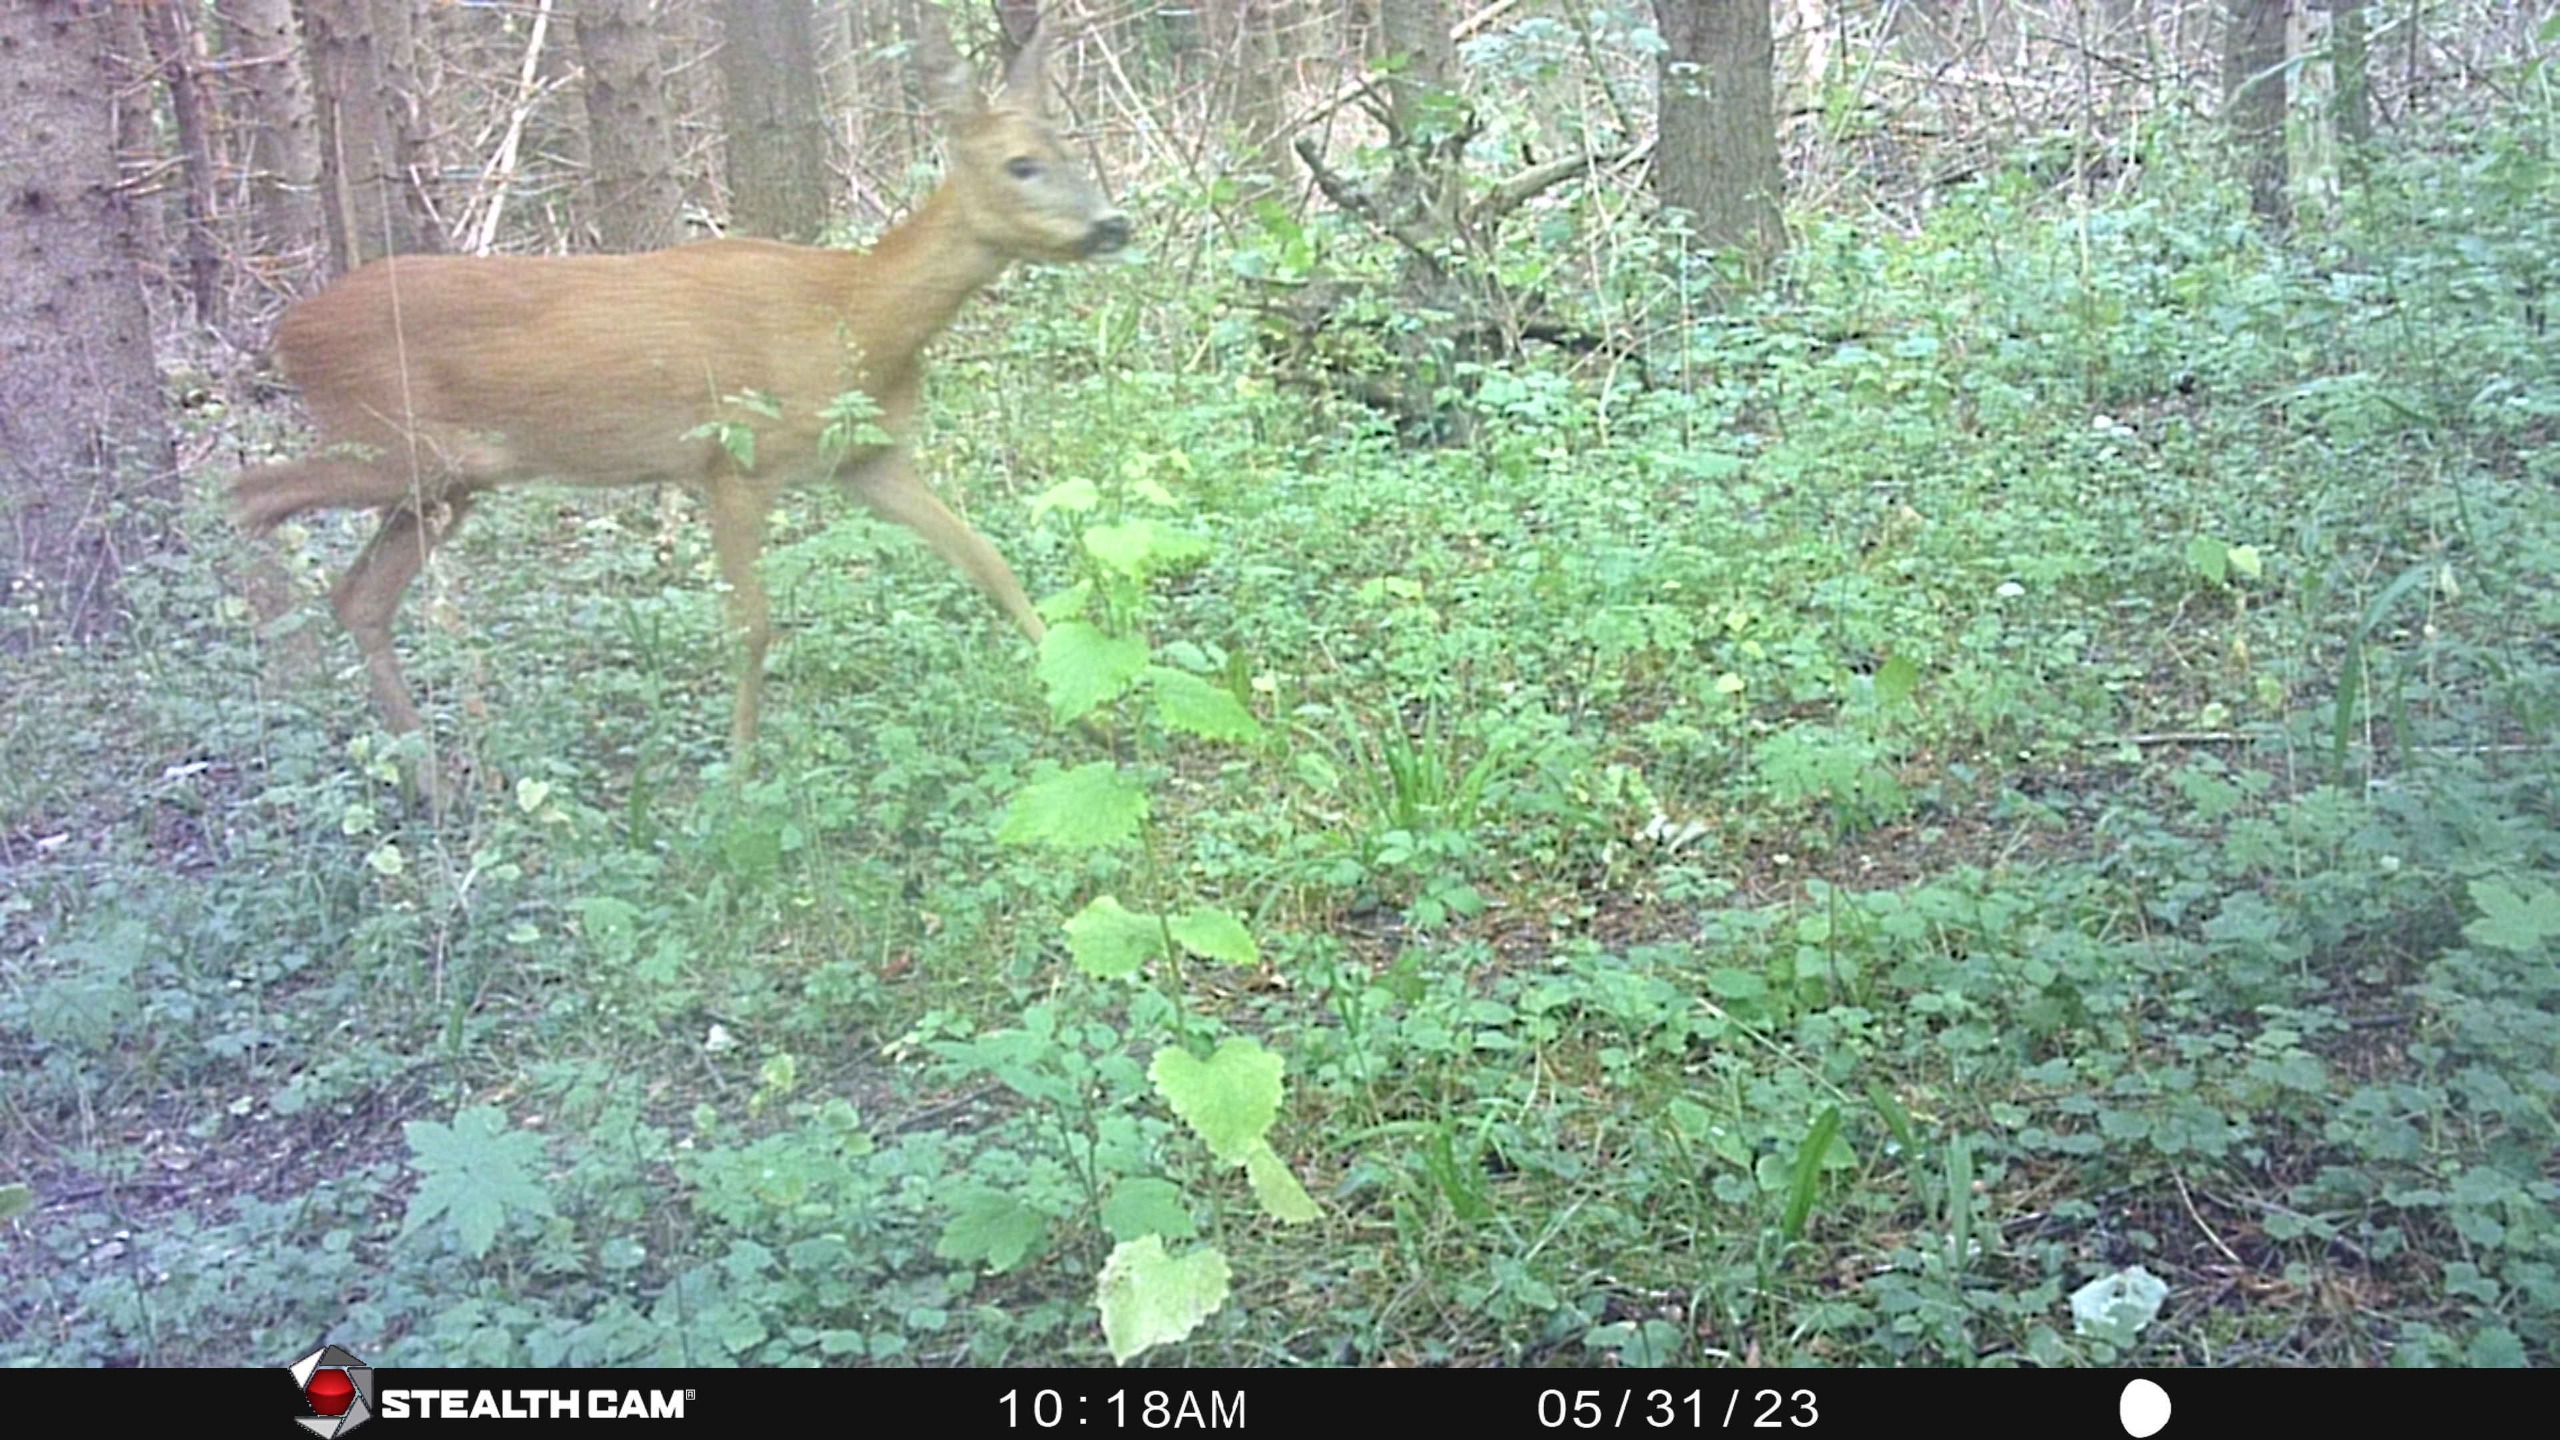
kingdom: Animalia
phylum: Chordata
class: Mammalia
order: Artiodactyla
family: Cervidae
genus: Capreolus
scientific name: Capreolus capreolus
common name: Rådyr
